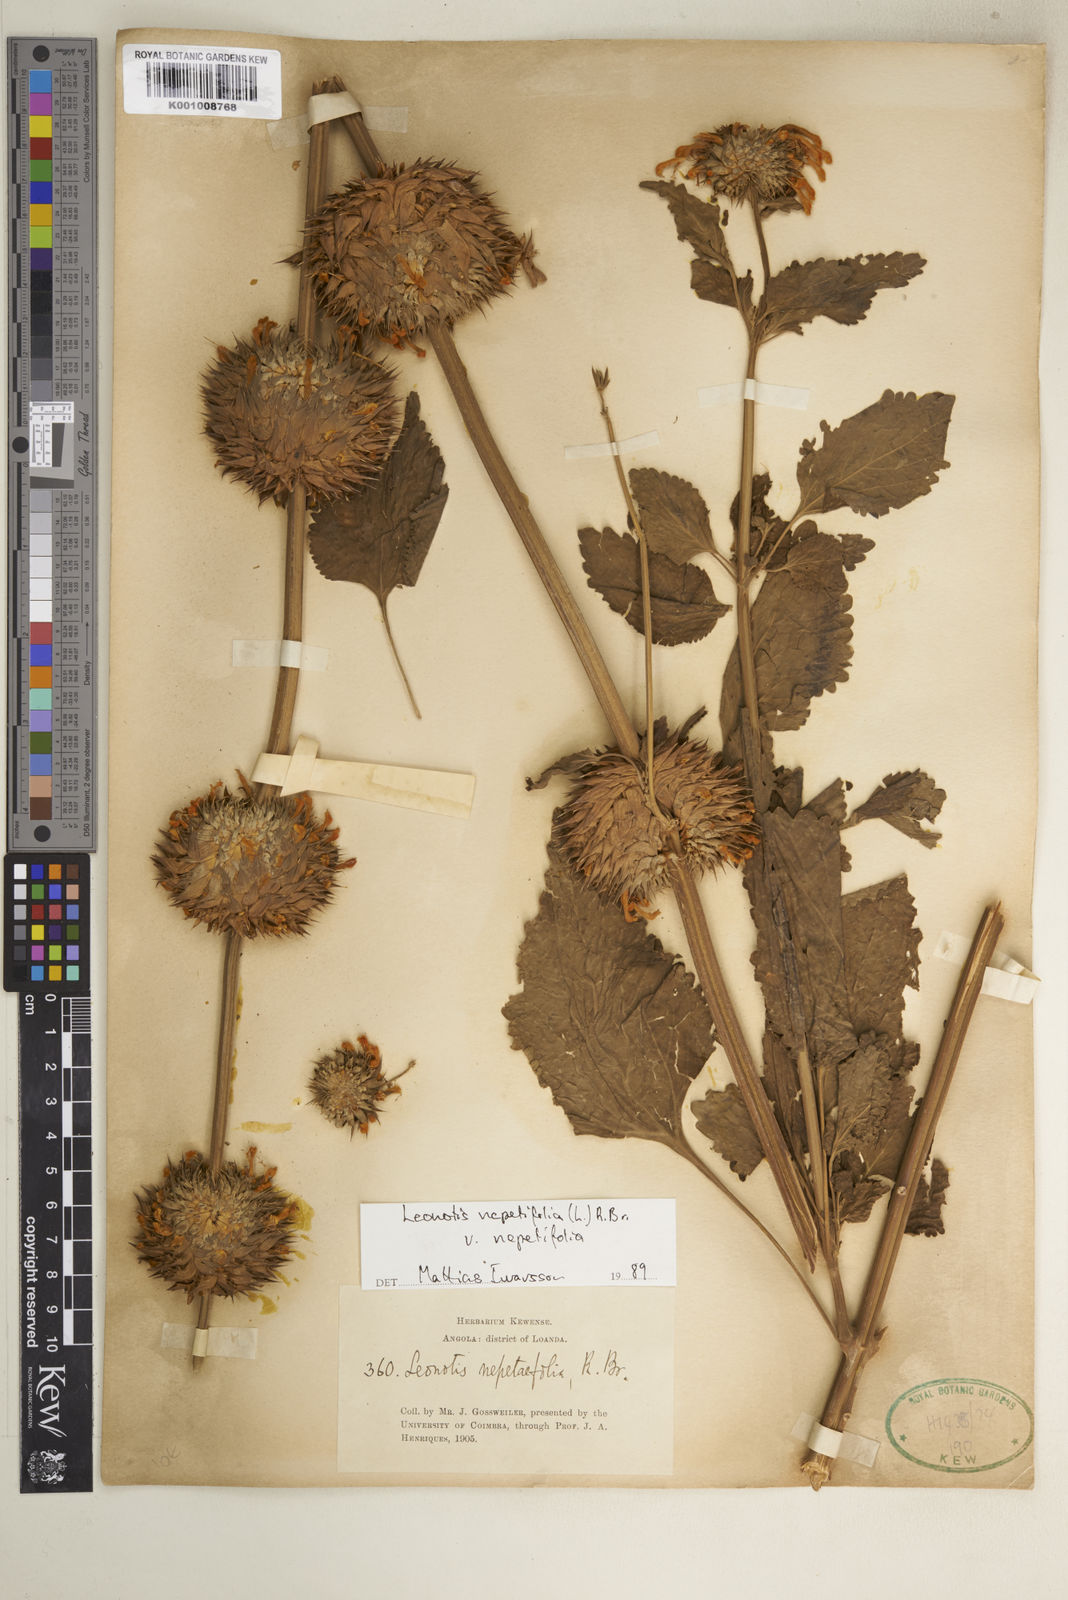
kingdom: Plantae
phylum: Tracheophyta
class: Magnoliopsida
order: Lamiales
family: Lamiaceae
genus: Leonotis
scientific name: Leonotis nepetifolia
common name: Christmas candlestick
